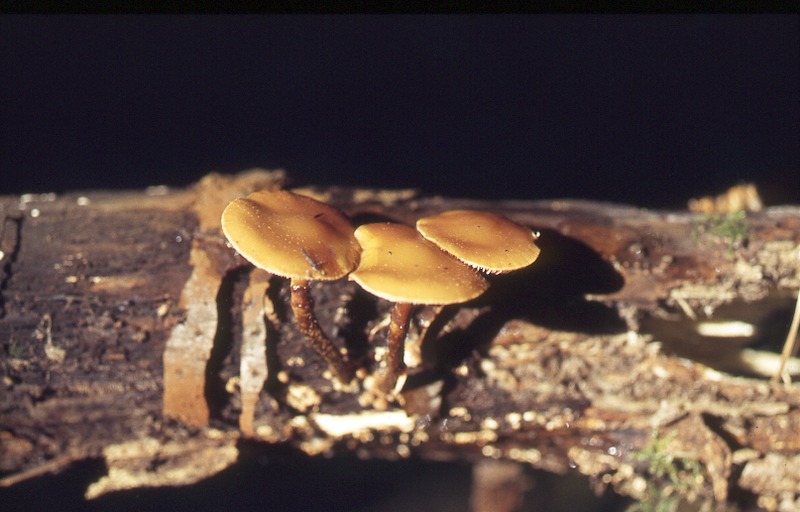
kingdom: Fungi
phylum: Basidiomycota
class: Agaricomycetes
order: Agaricales
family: Hymenogastraceae
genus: Galerina
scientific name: Galerina marginata
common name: Funeral bell
